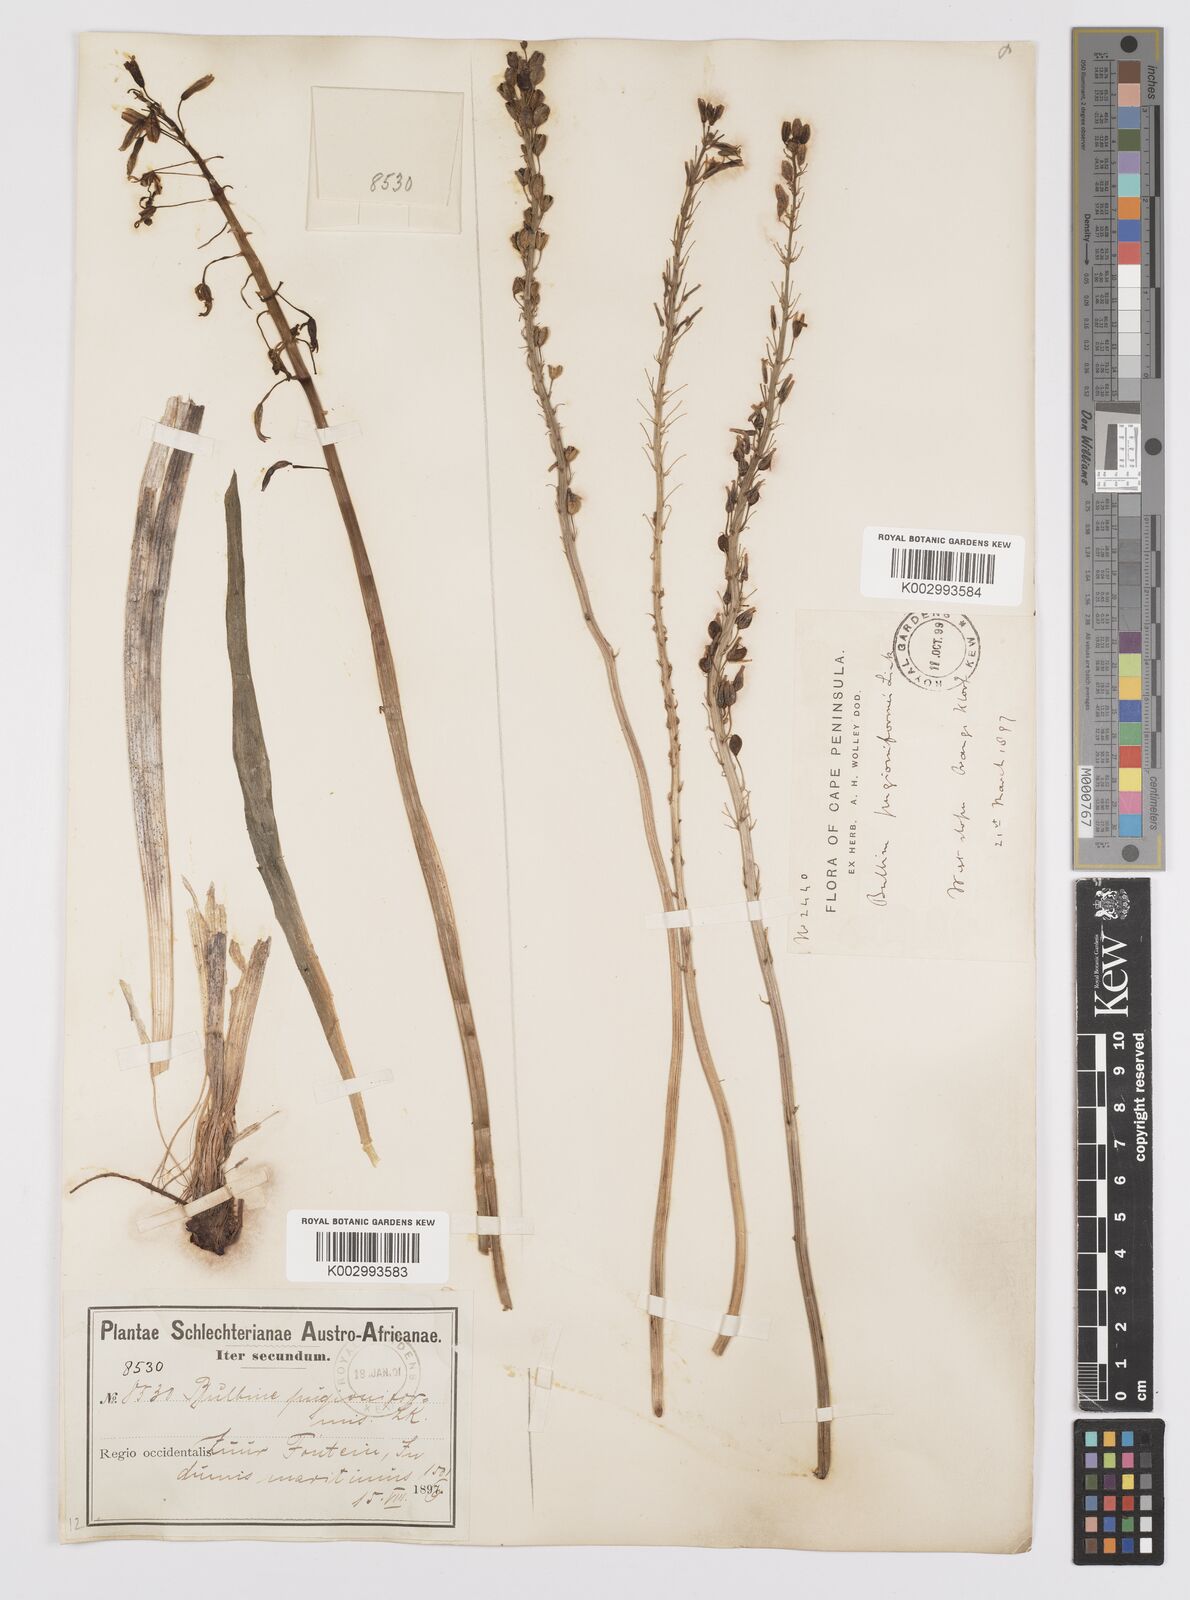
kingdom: Plantae
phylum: Tracheophyta
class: Liliopsida
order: Asparagales
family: Asphodelaceae
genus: Bulbine
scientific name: Bulbine cepacea
